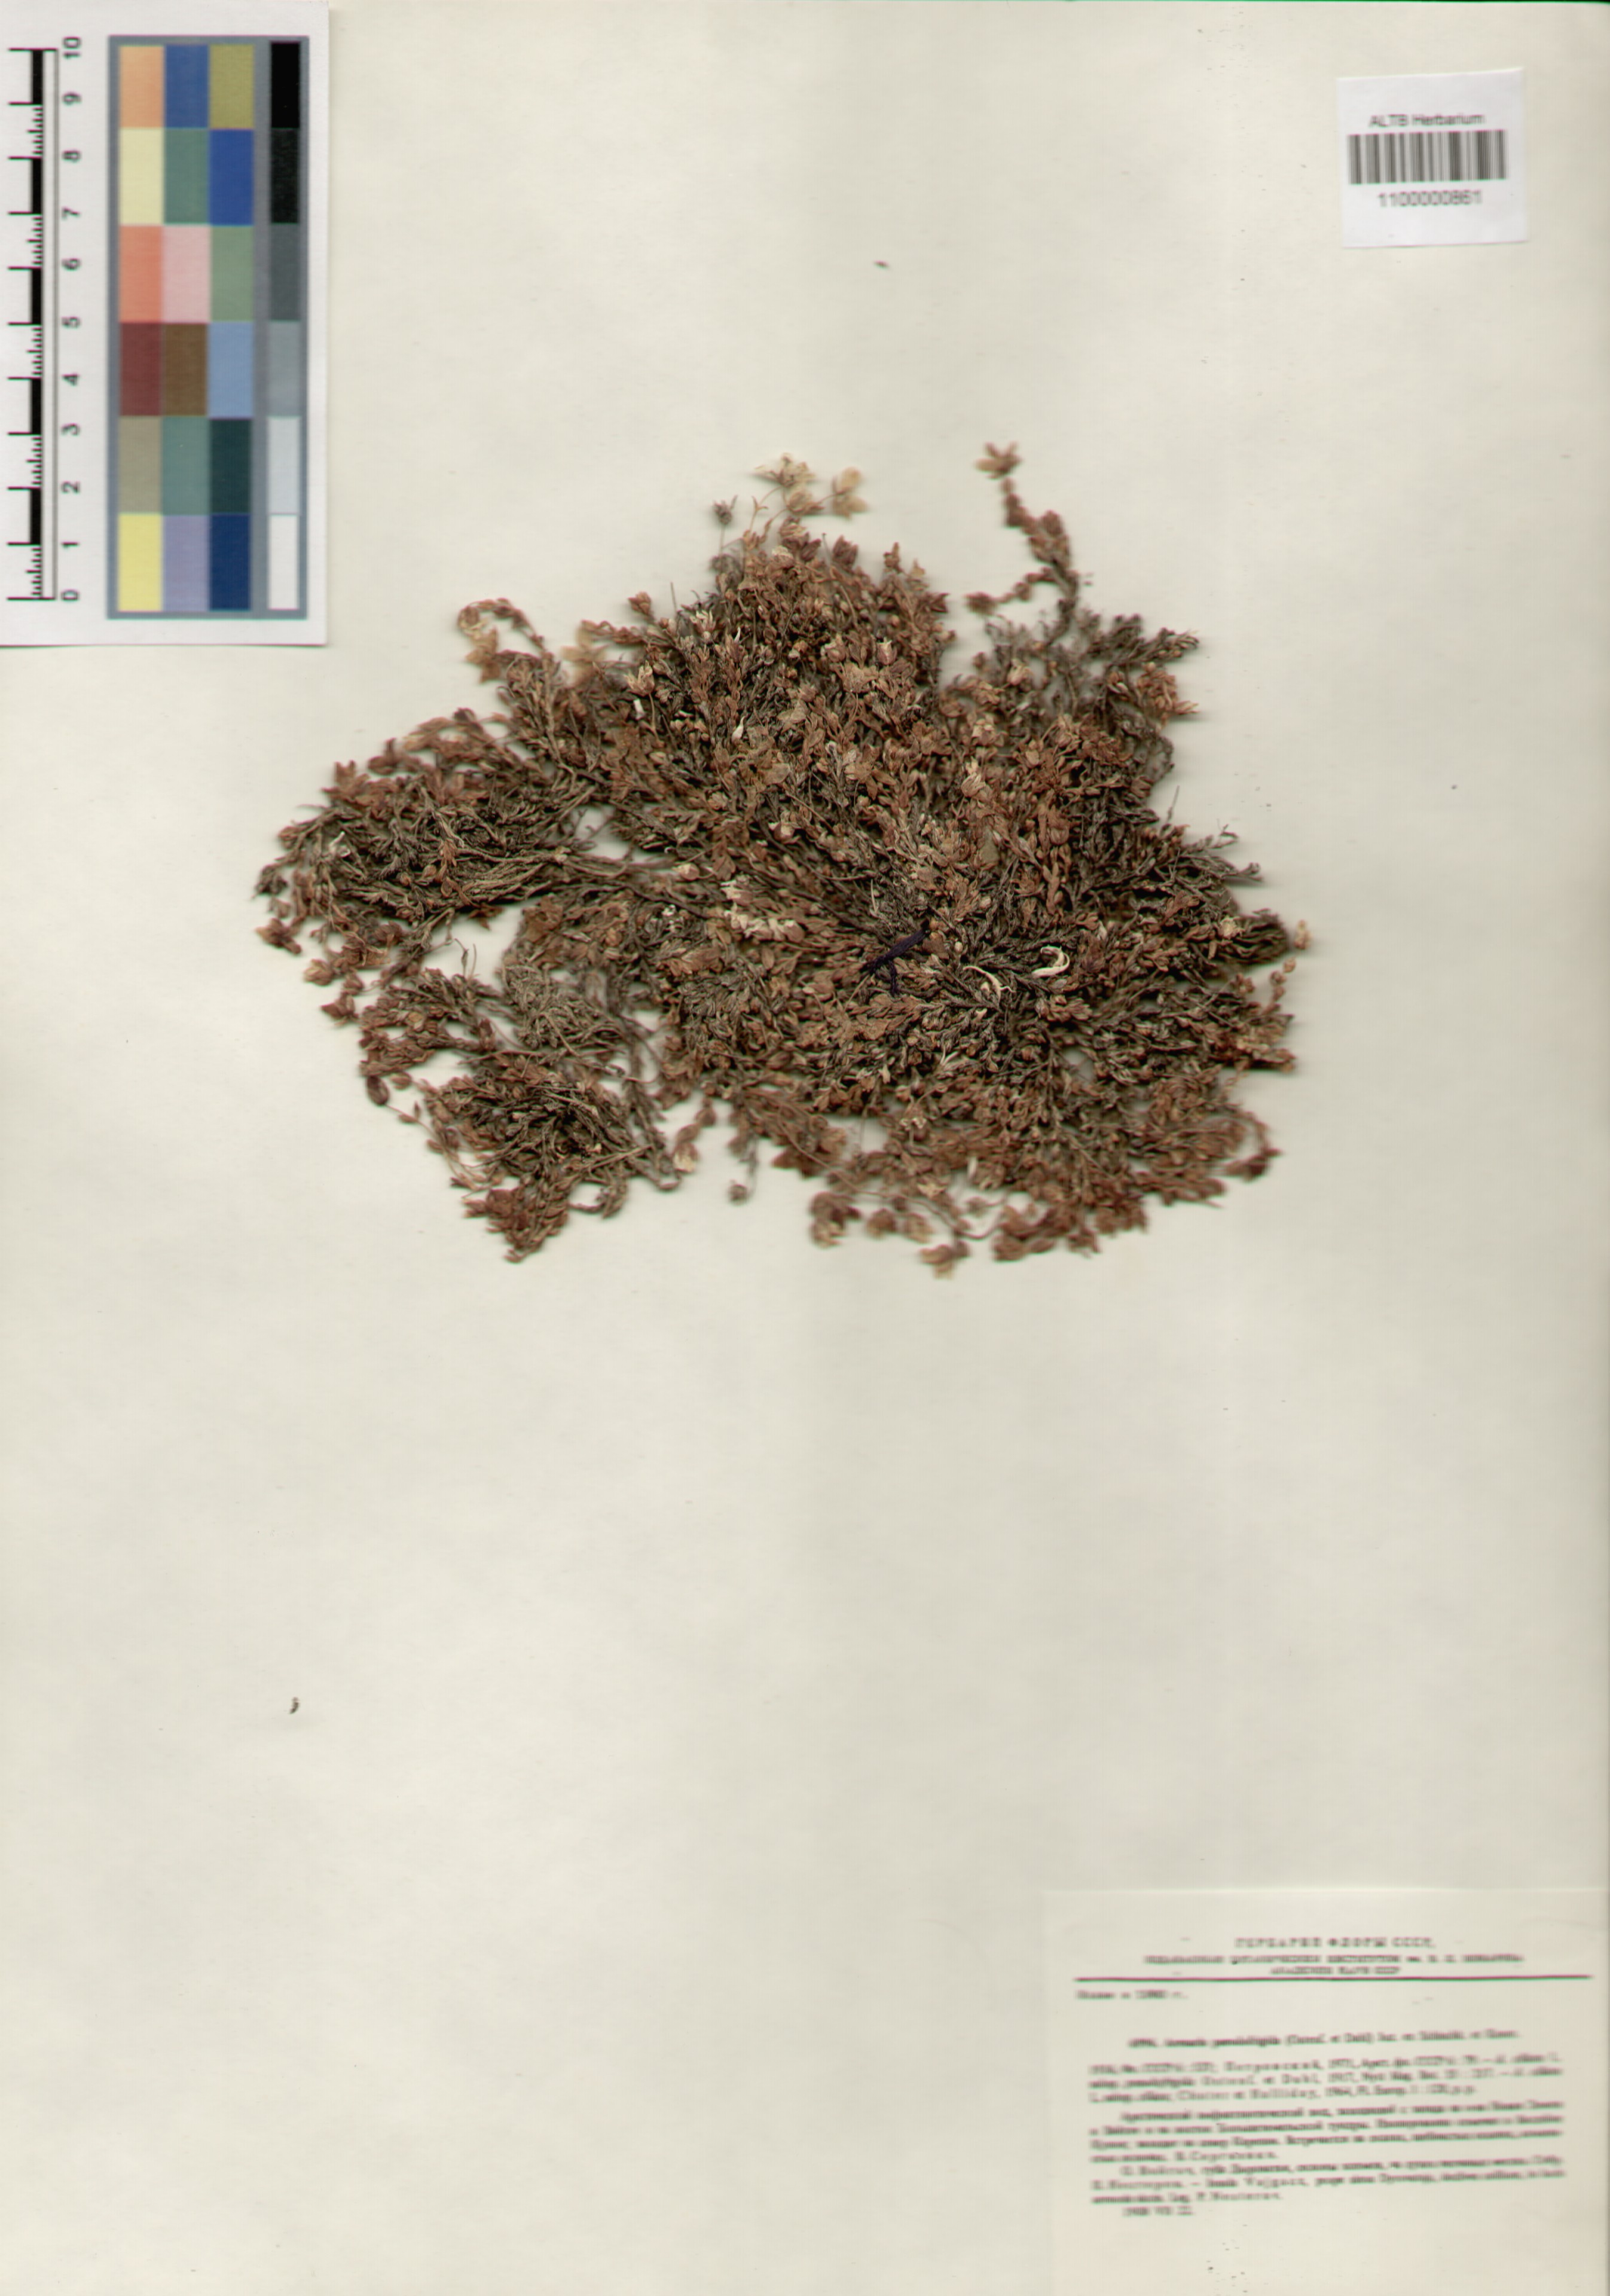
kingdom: Plantae
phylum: Tracheophyta
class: Magnoliopsida
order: Caryophyllales
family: Caryophyllaceae
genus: Arenaria
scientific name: Arenaria pseudofrigida
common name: Tundra sandwort
